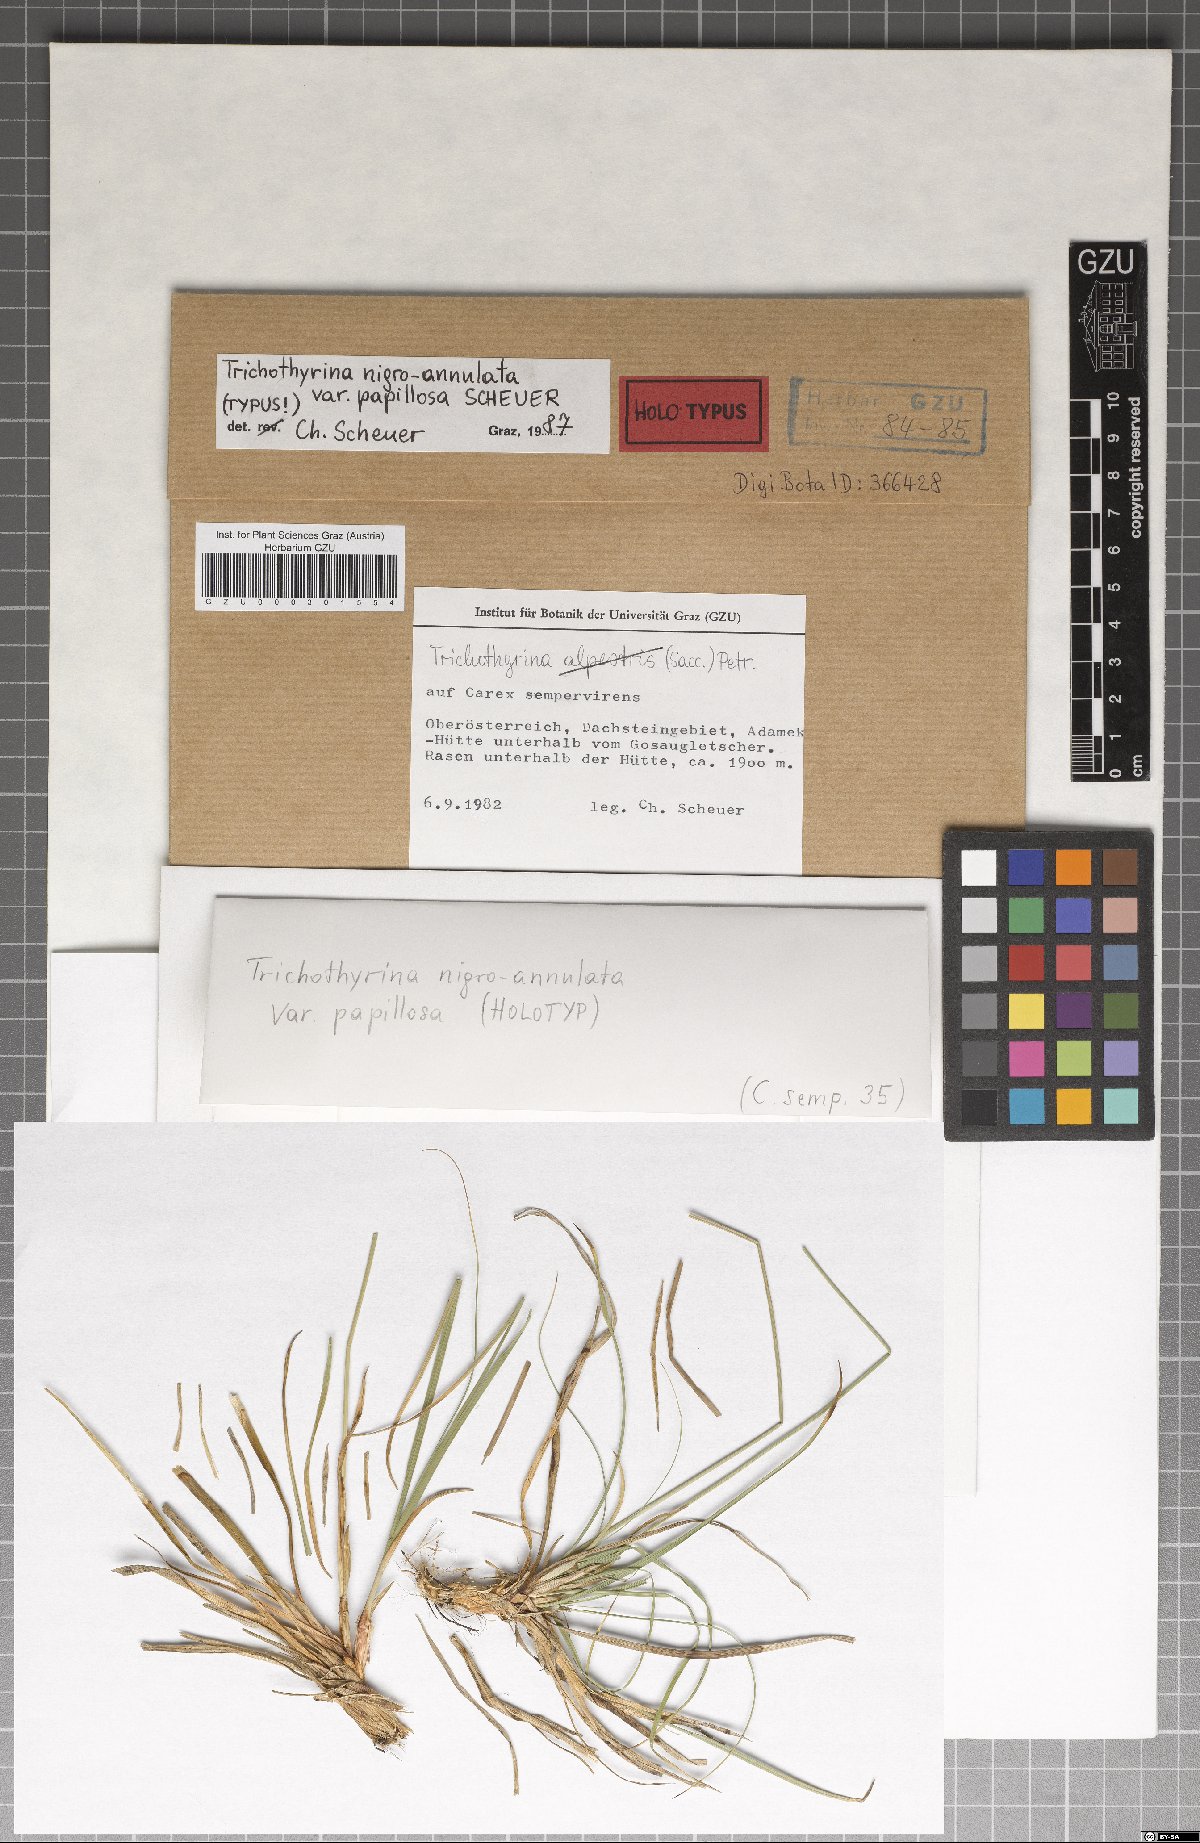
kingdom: Fungi
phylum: Ascomycota
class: Dothideomycetes
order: Microthyriales
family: Microthyriaceae
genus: Lichenopeltella
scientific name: Lichenopeltella nigroannulata
